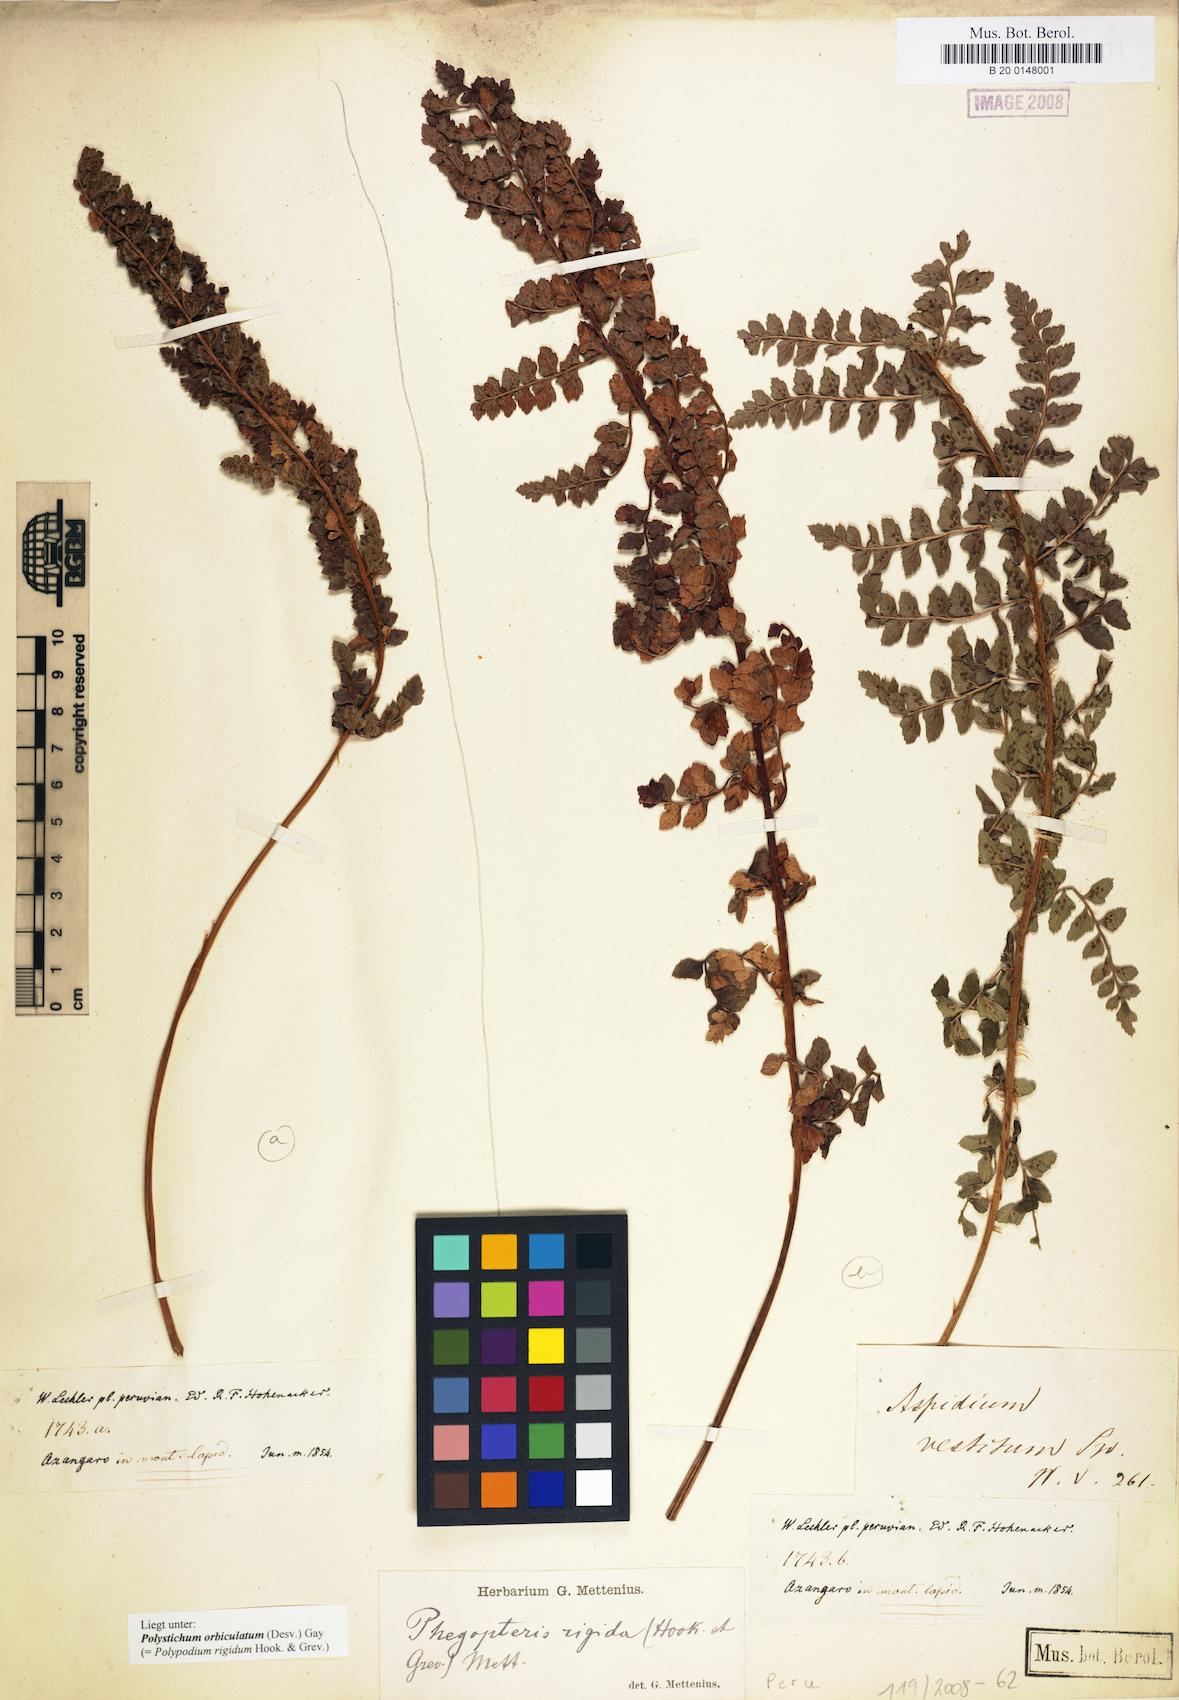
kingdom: Plantae
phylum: Tracheophyta
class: Polypodiopsida
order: Polypodiales
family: Dryopteridaceae
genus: Polystichum
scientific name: Polystichum orbiculatum
